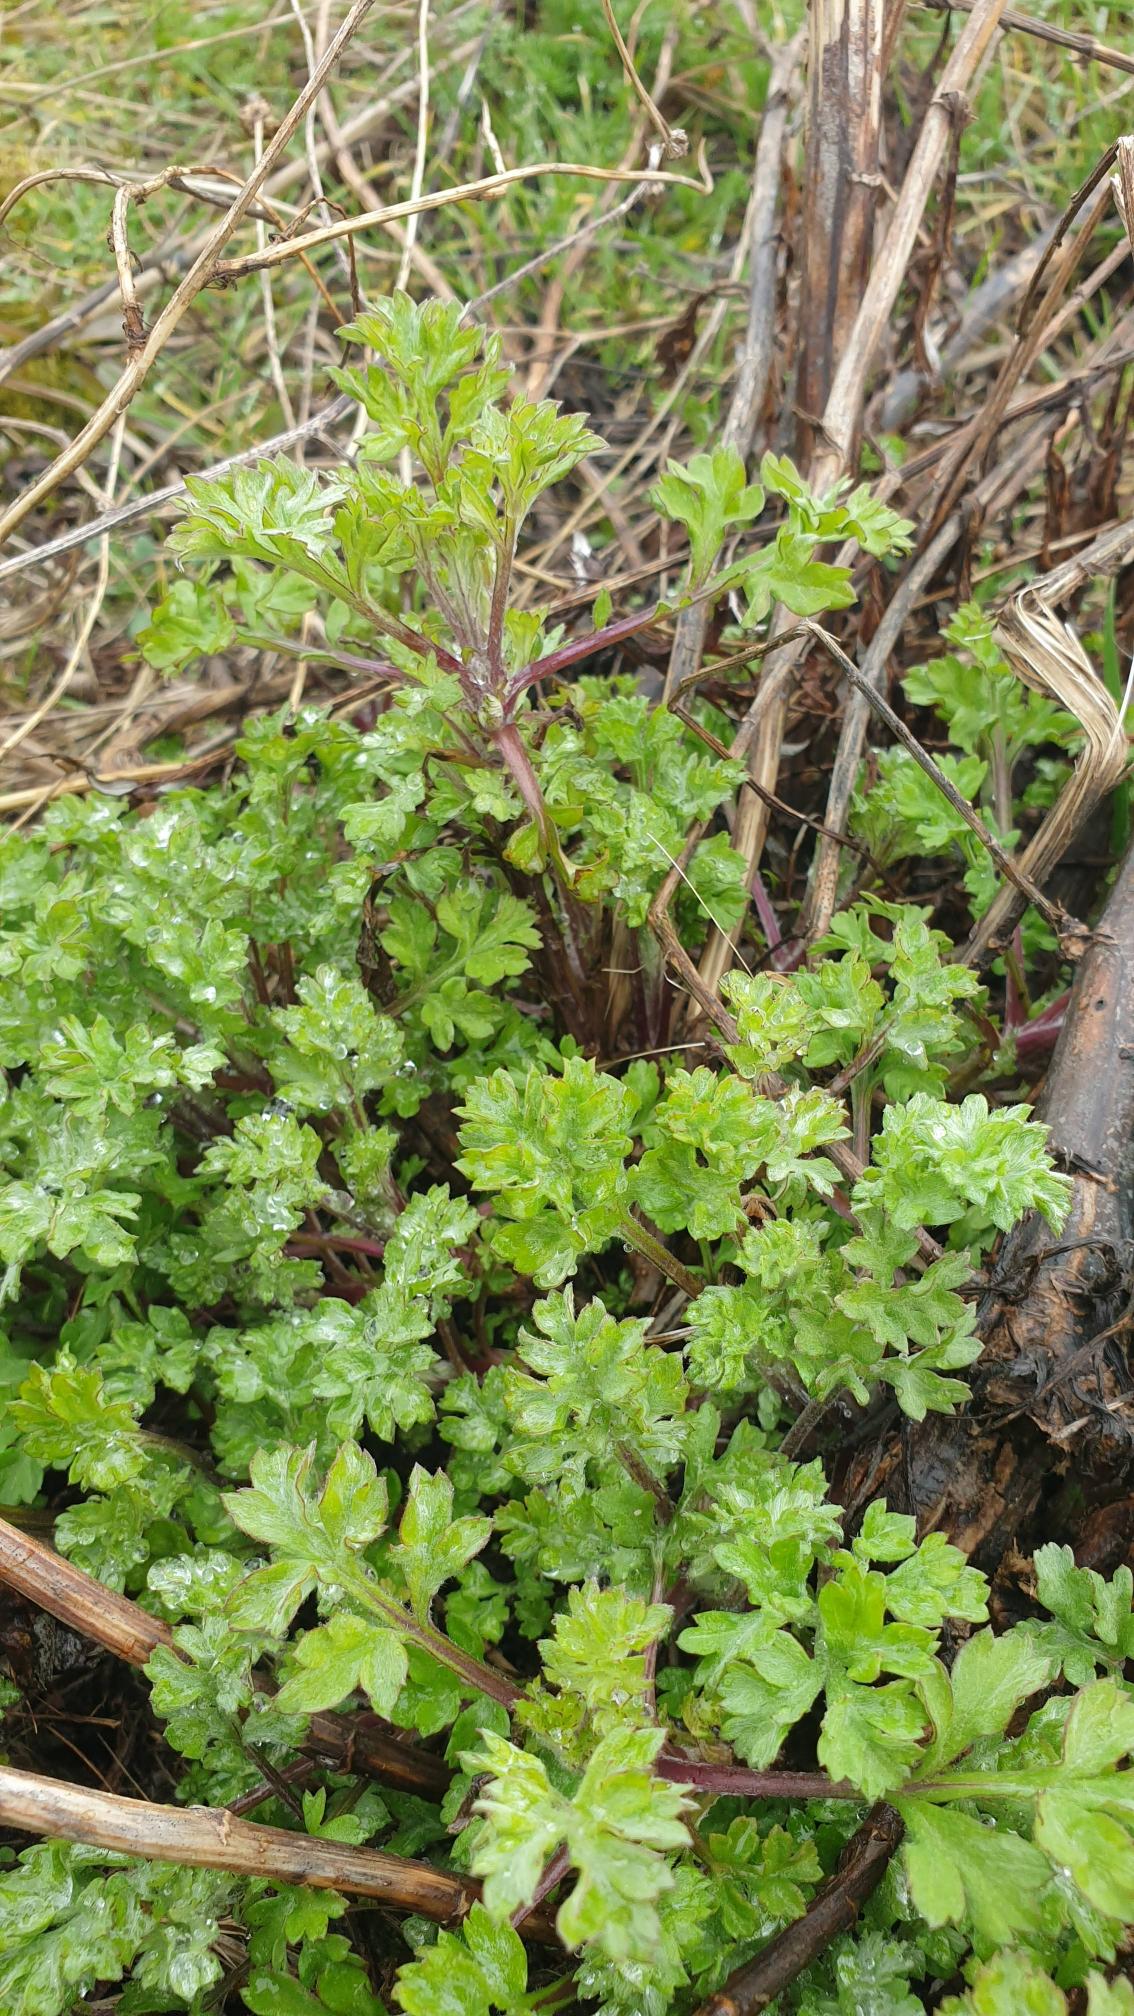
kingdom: Plantae
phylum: Tracheophyta
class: Magnoliopsida
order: Asterales
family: Asteraceae
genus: Artemisia
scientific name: Artemisia vulgaris
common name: Grå-bynke
